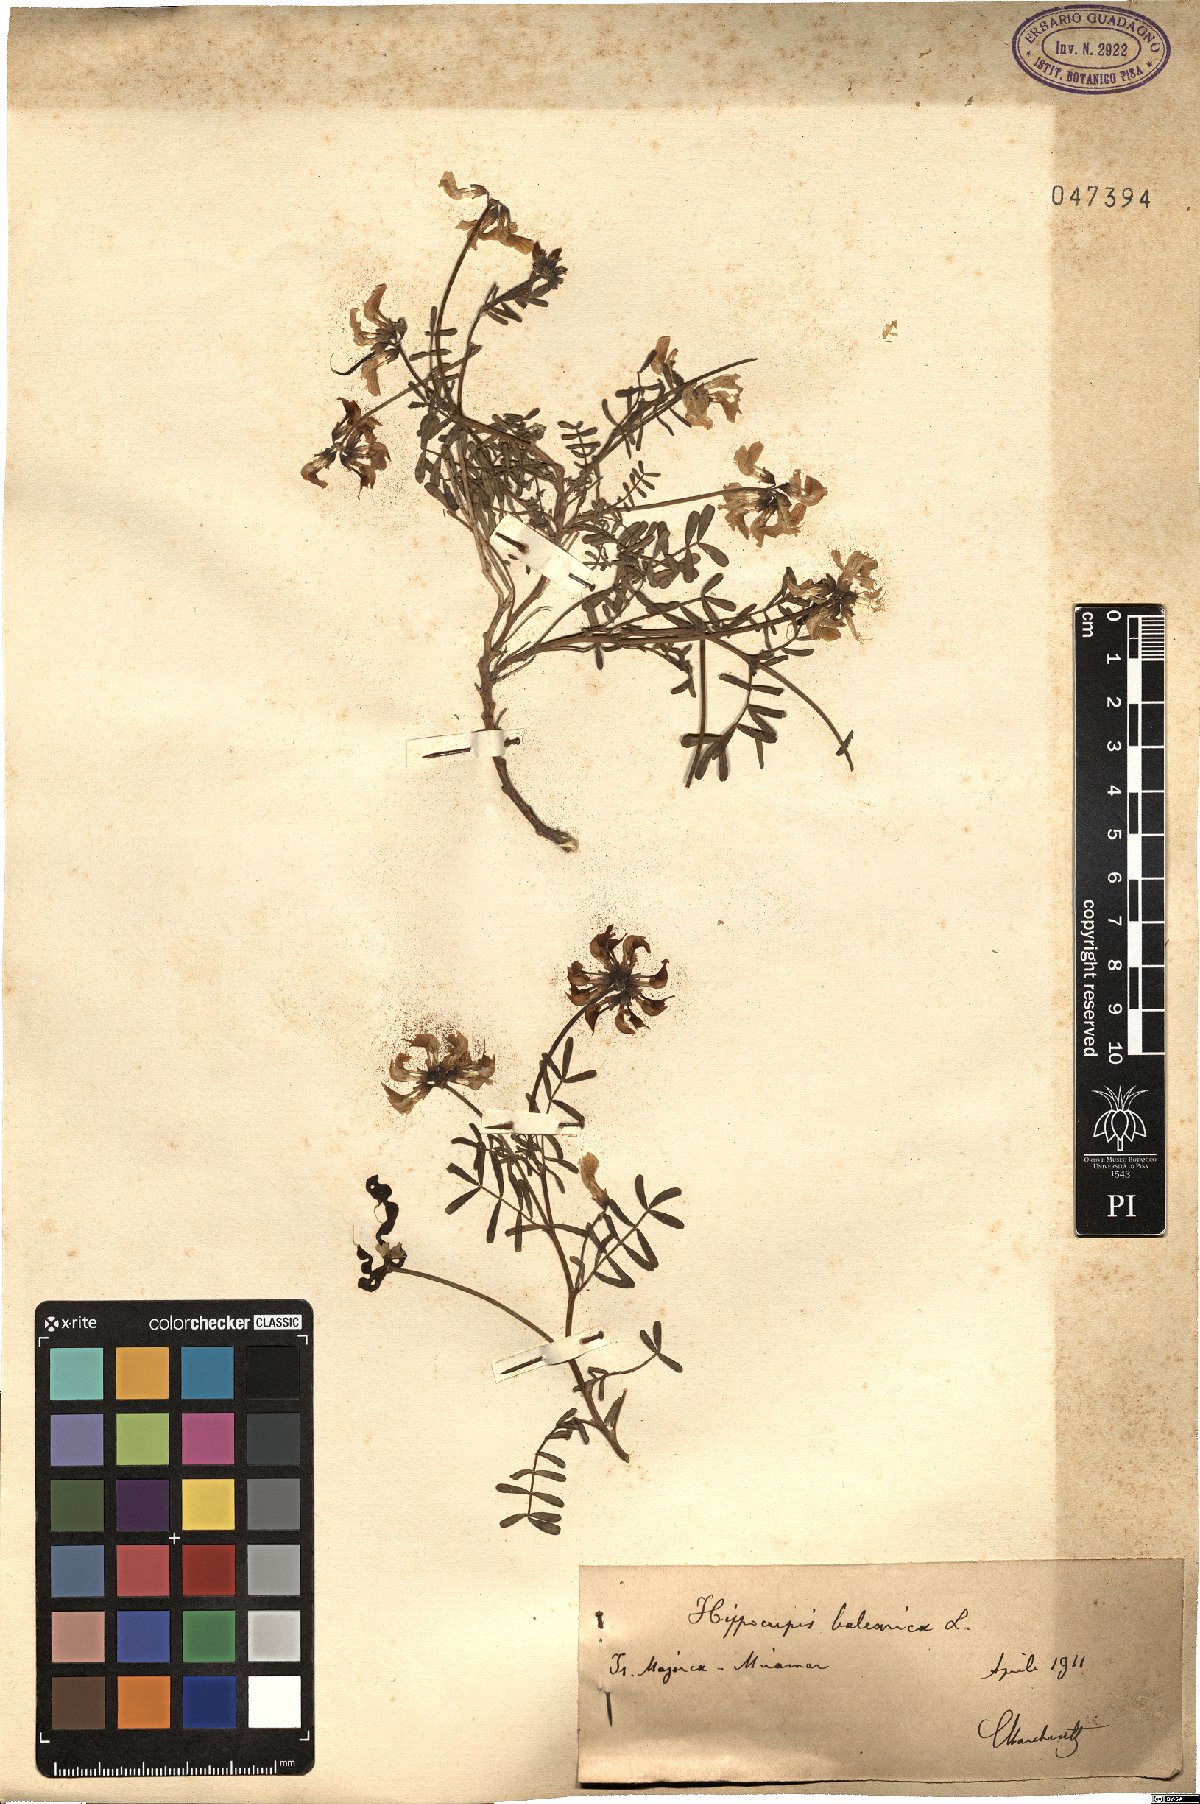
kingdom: Plantae
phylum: Tracheophyta
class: Magnoliopsida
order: Fabales
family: Fabaceae
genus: Hippocrepis
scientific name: Hippocrepis balearica
